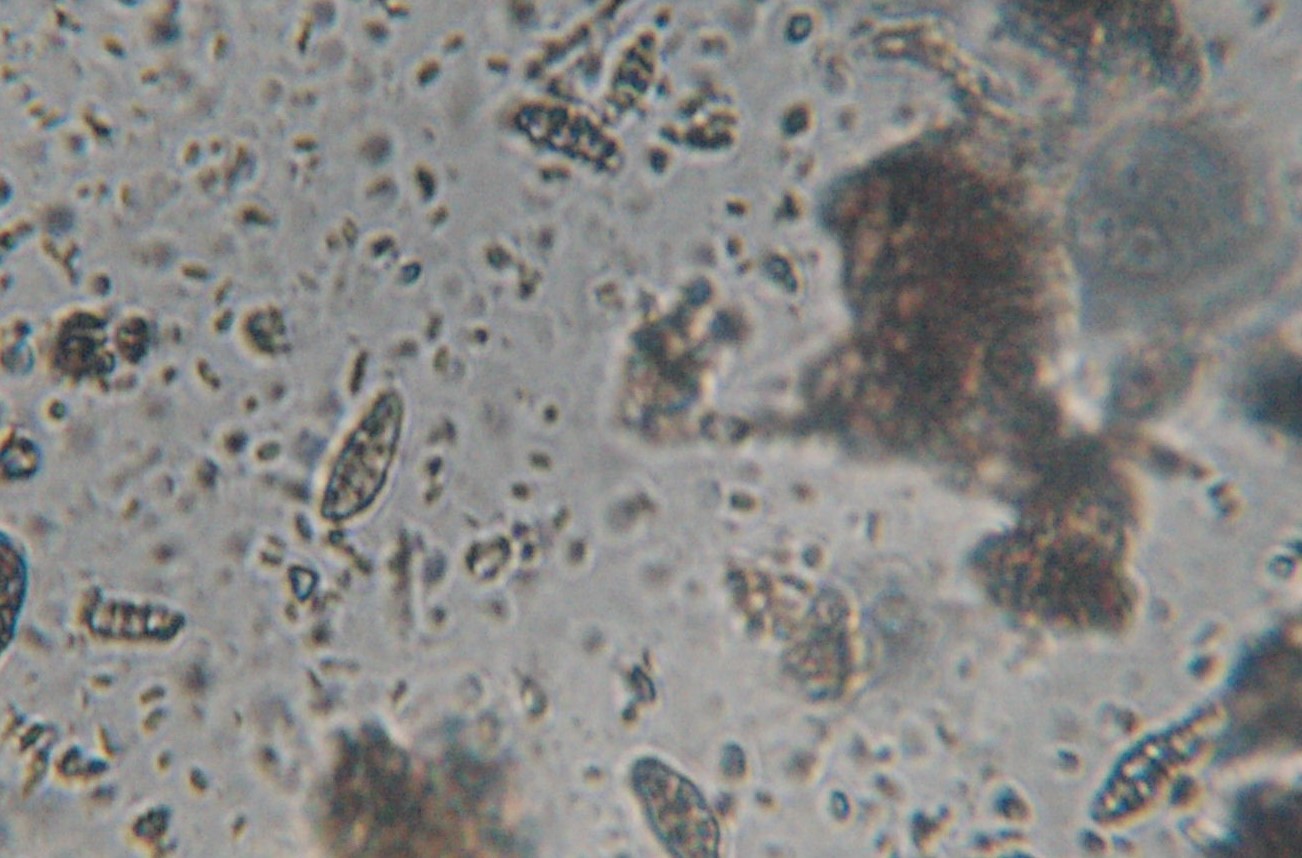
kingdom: Fungi
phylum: Ascomycota
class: Eurotiomycetes
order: Chaetothyriales
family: Herpotrichiellaceae
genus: Capronia
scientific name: Capronia nigerrima
